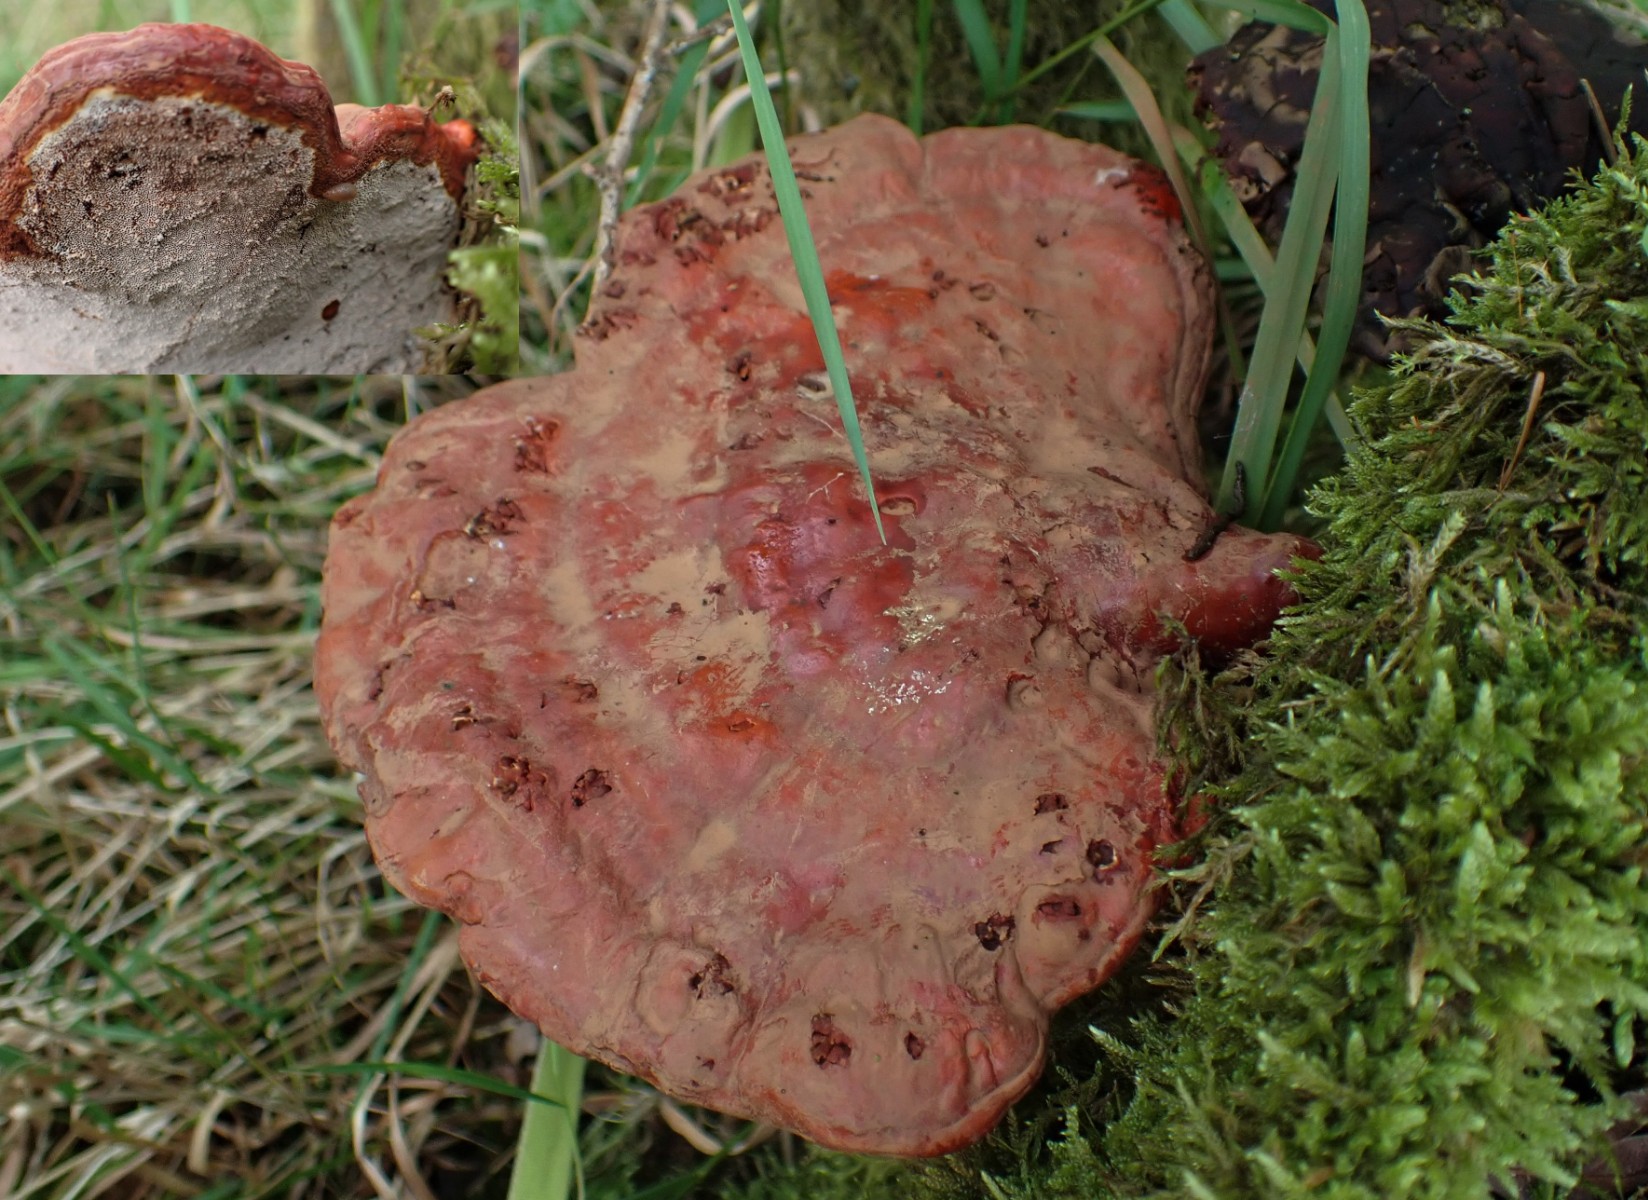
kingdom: Fungi
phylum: Basidiomycota
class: Agaricomycetes
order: Polyporales
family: Polyporaceae
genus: Ganoderma
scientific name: Ganoderma lucidum
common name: skinnende lakporesvamp
